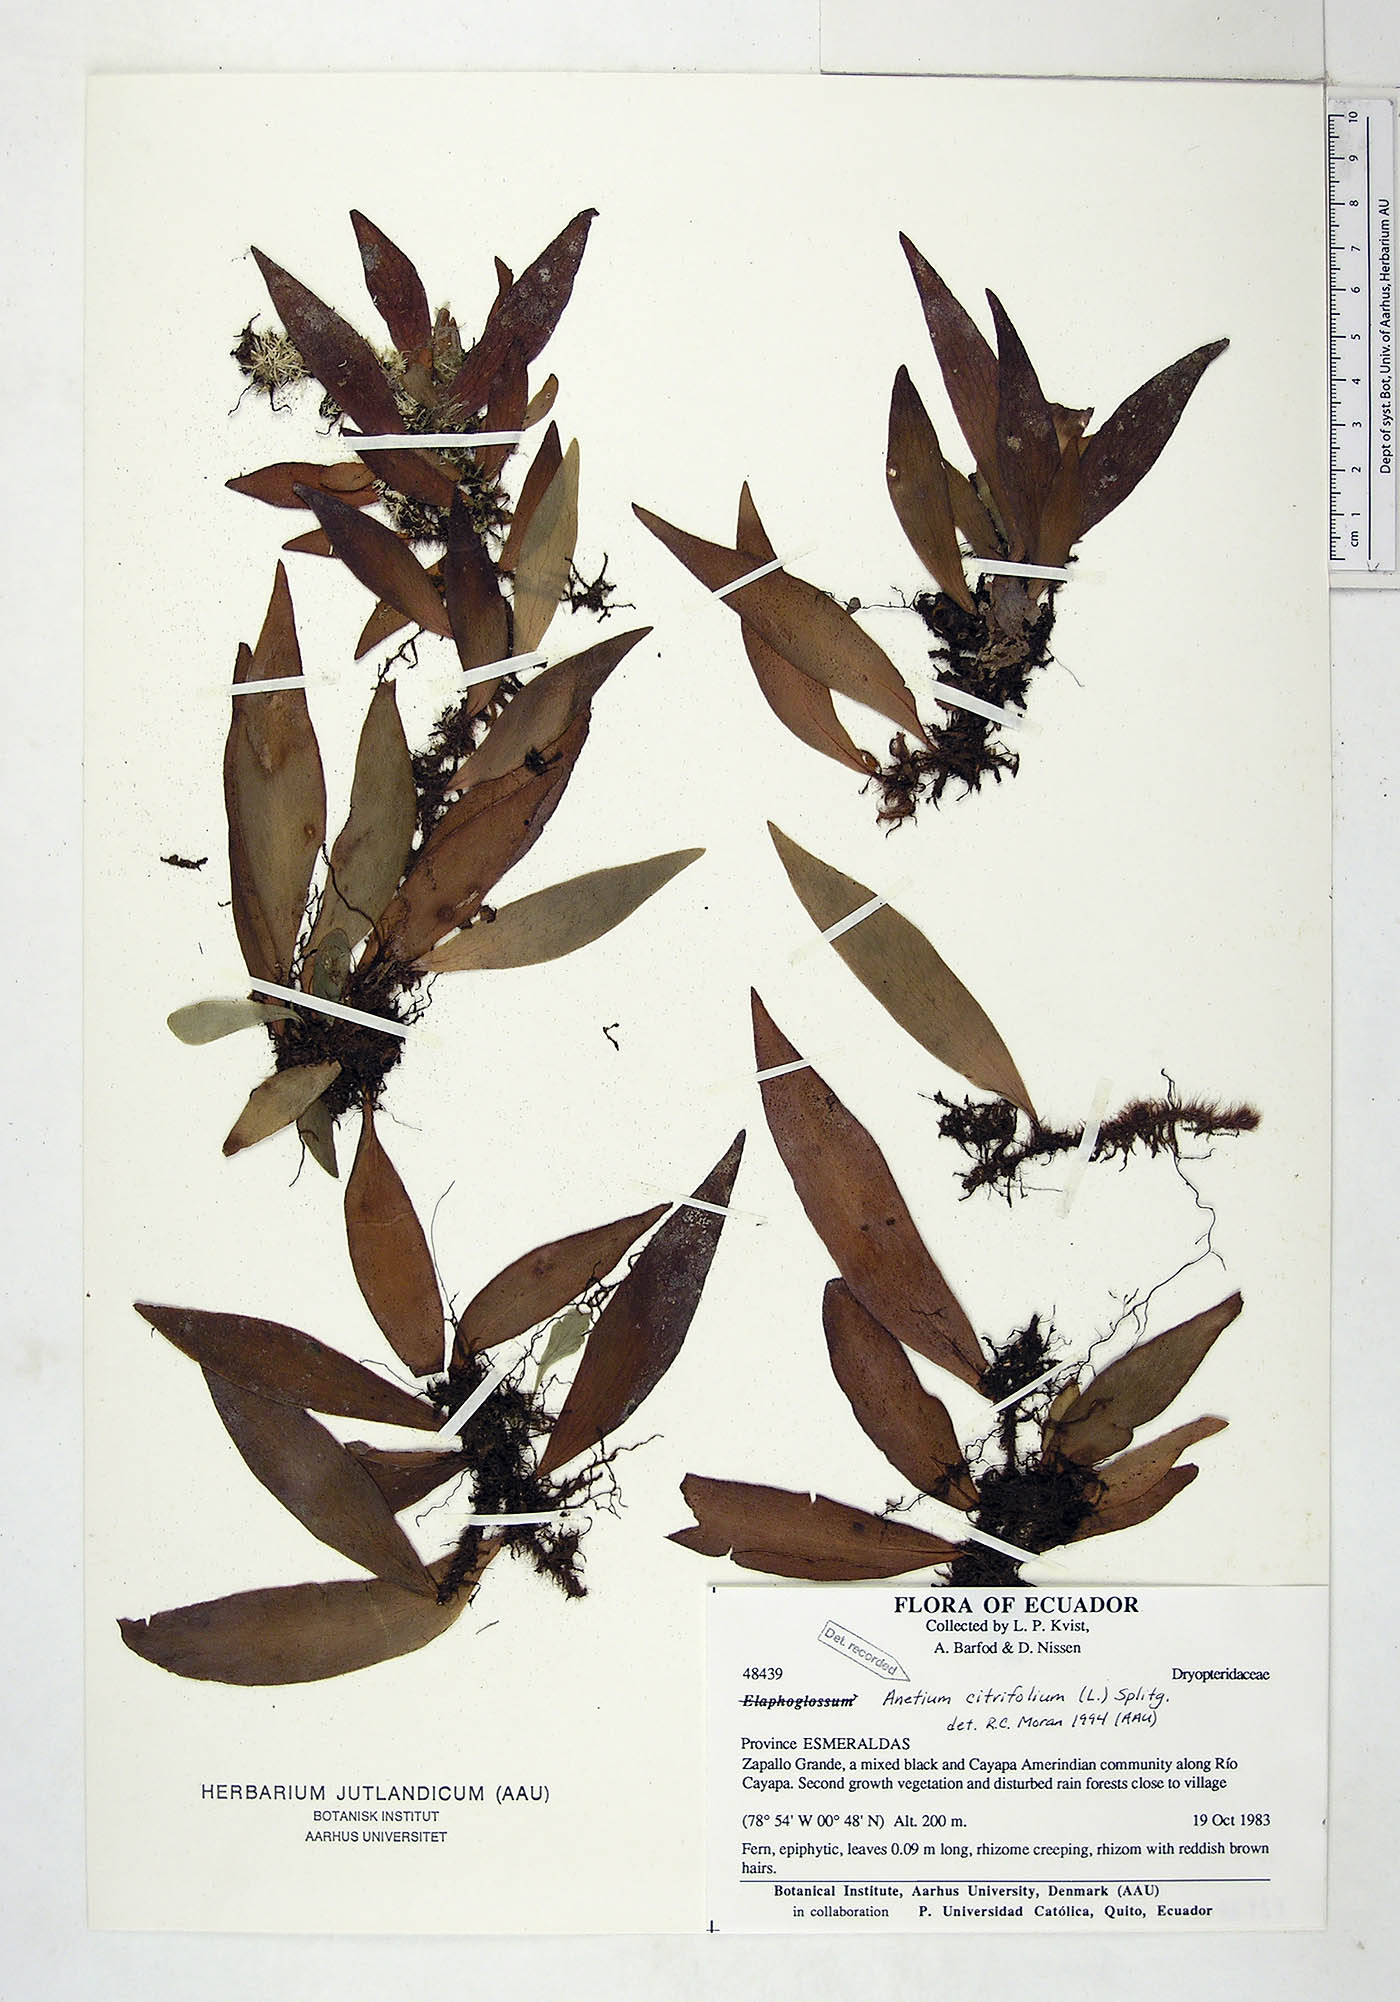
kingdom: Plantae
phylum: Tracheophyta
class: Polypodiopsida
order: Polypodiales
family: Pteridaceae
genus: Polytaenium
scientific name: Polytaenium citrifolium
